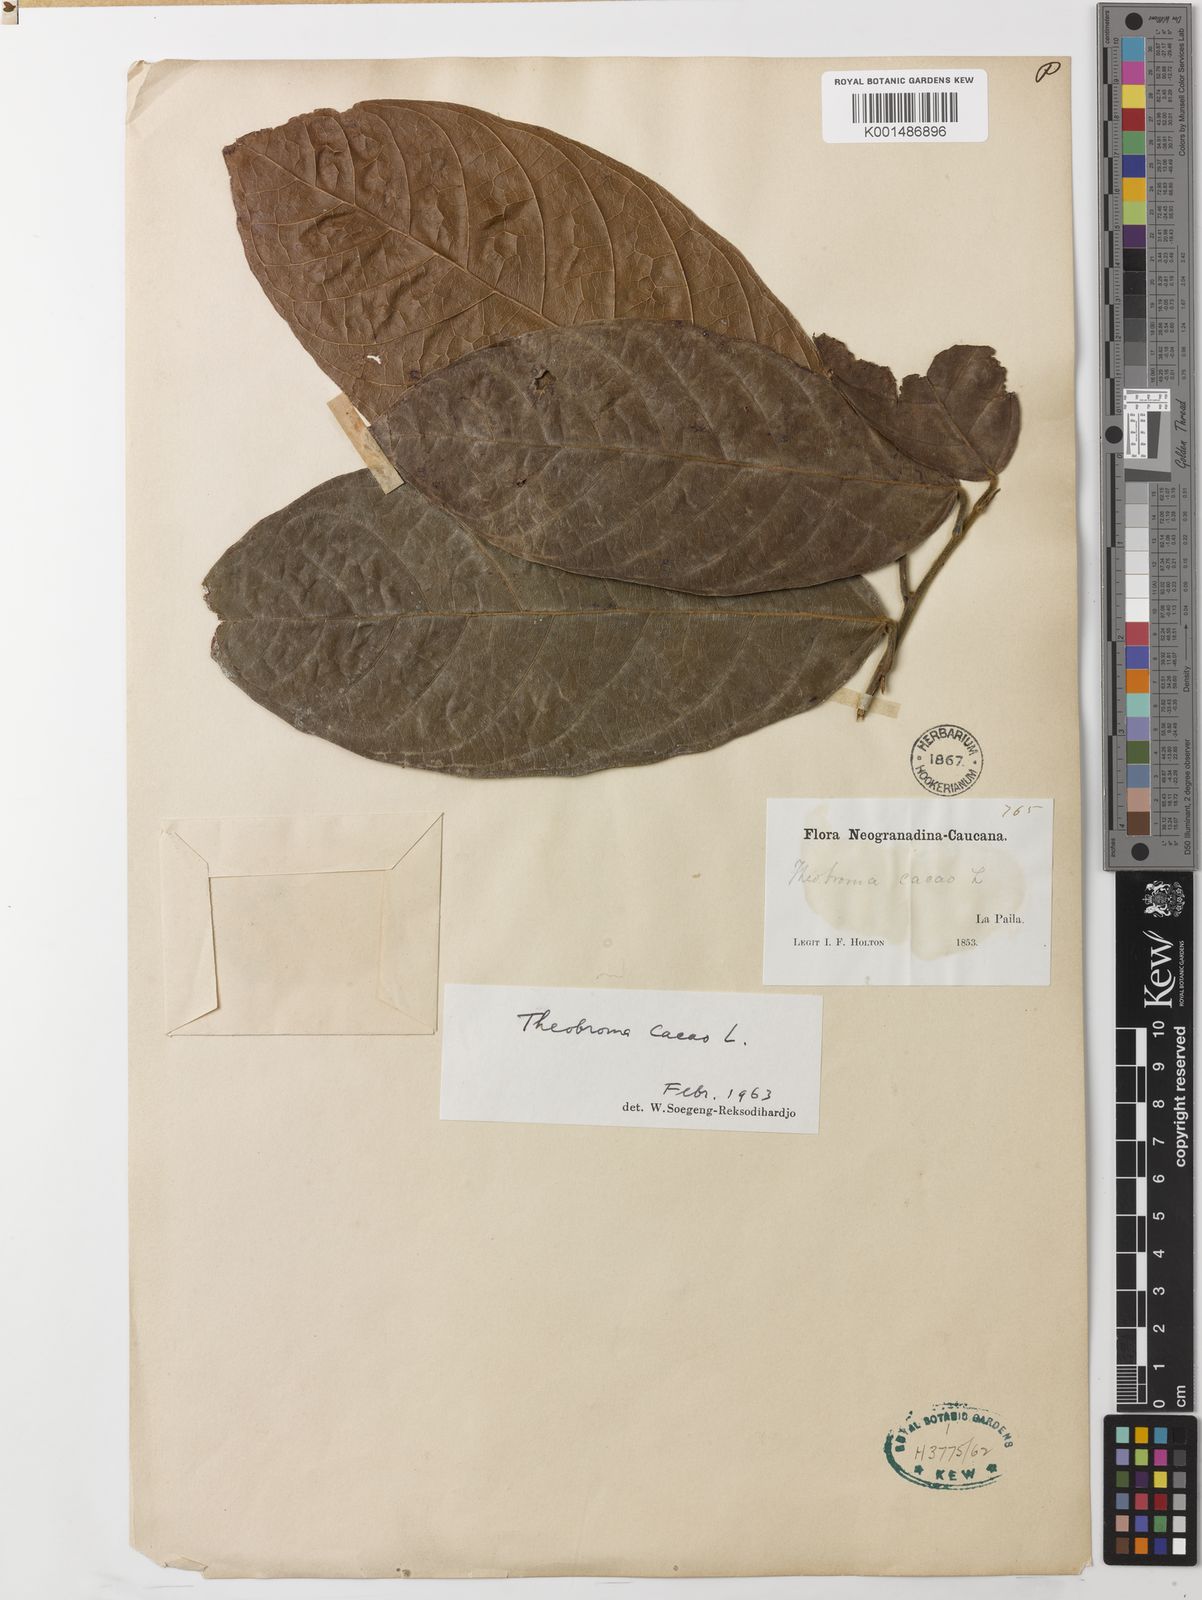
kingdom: Plantae
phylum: Tracheophyta
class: Magnoliopsida
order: Malvales
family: Malvaceae
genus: Theobroma
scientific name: Theobroma cacao
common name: Cocoa
